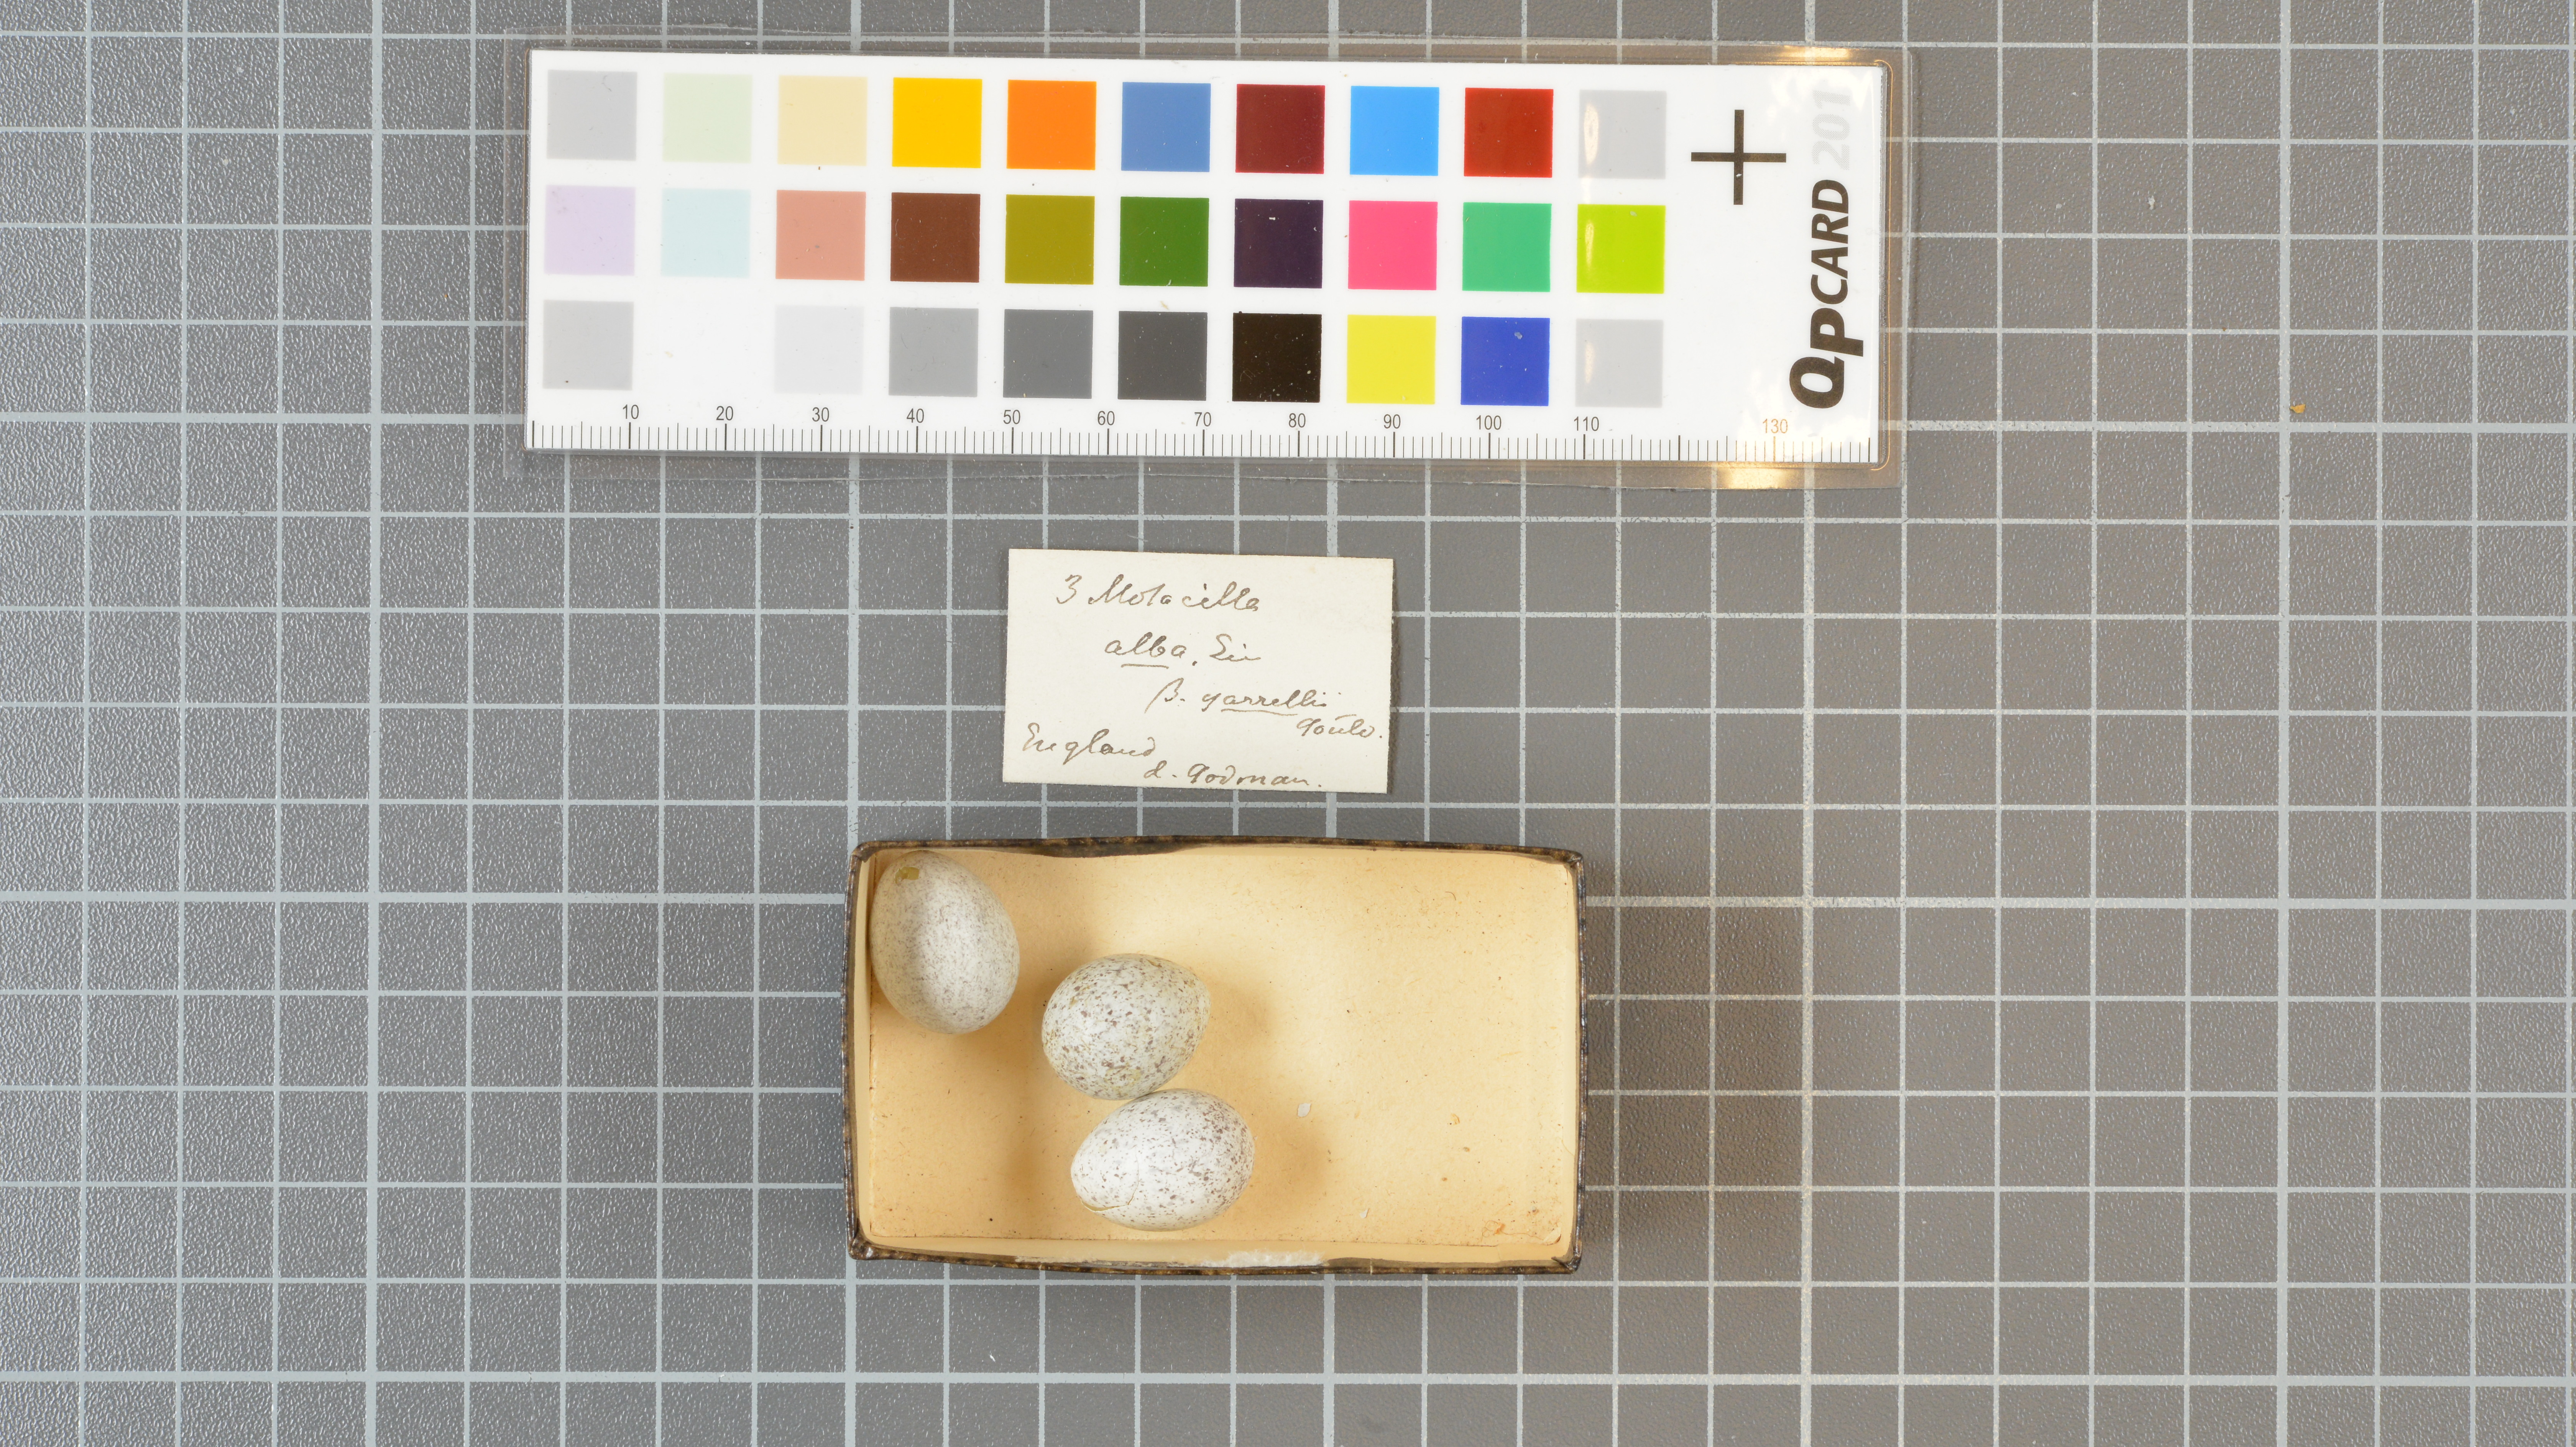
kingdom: Animalia
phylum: Chordata
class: Aves
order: Passeriformes
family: Motacillidae
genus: Motacilla
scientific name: Motacilla alba
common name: White wagtail
